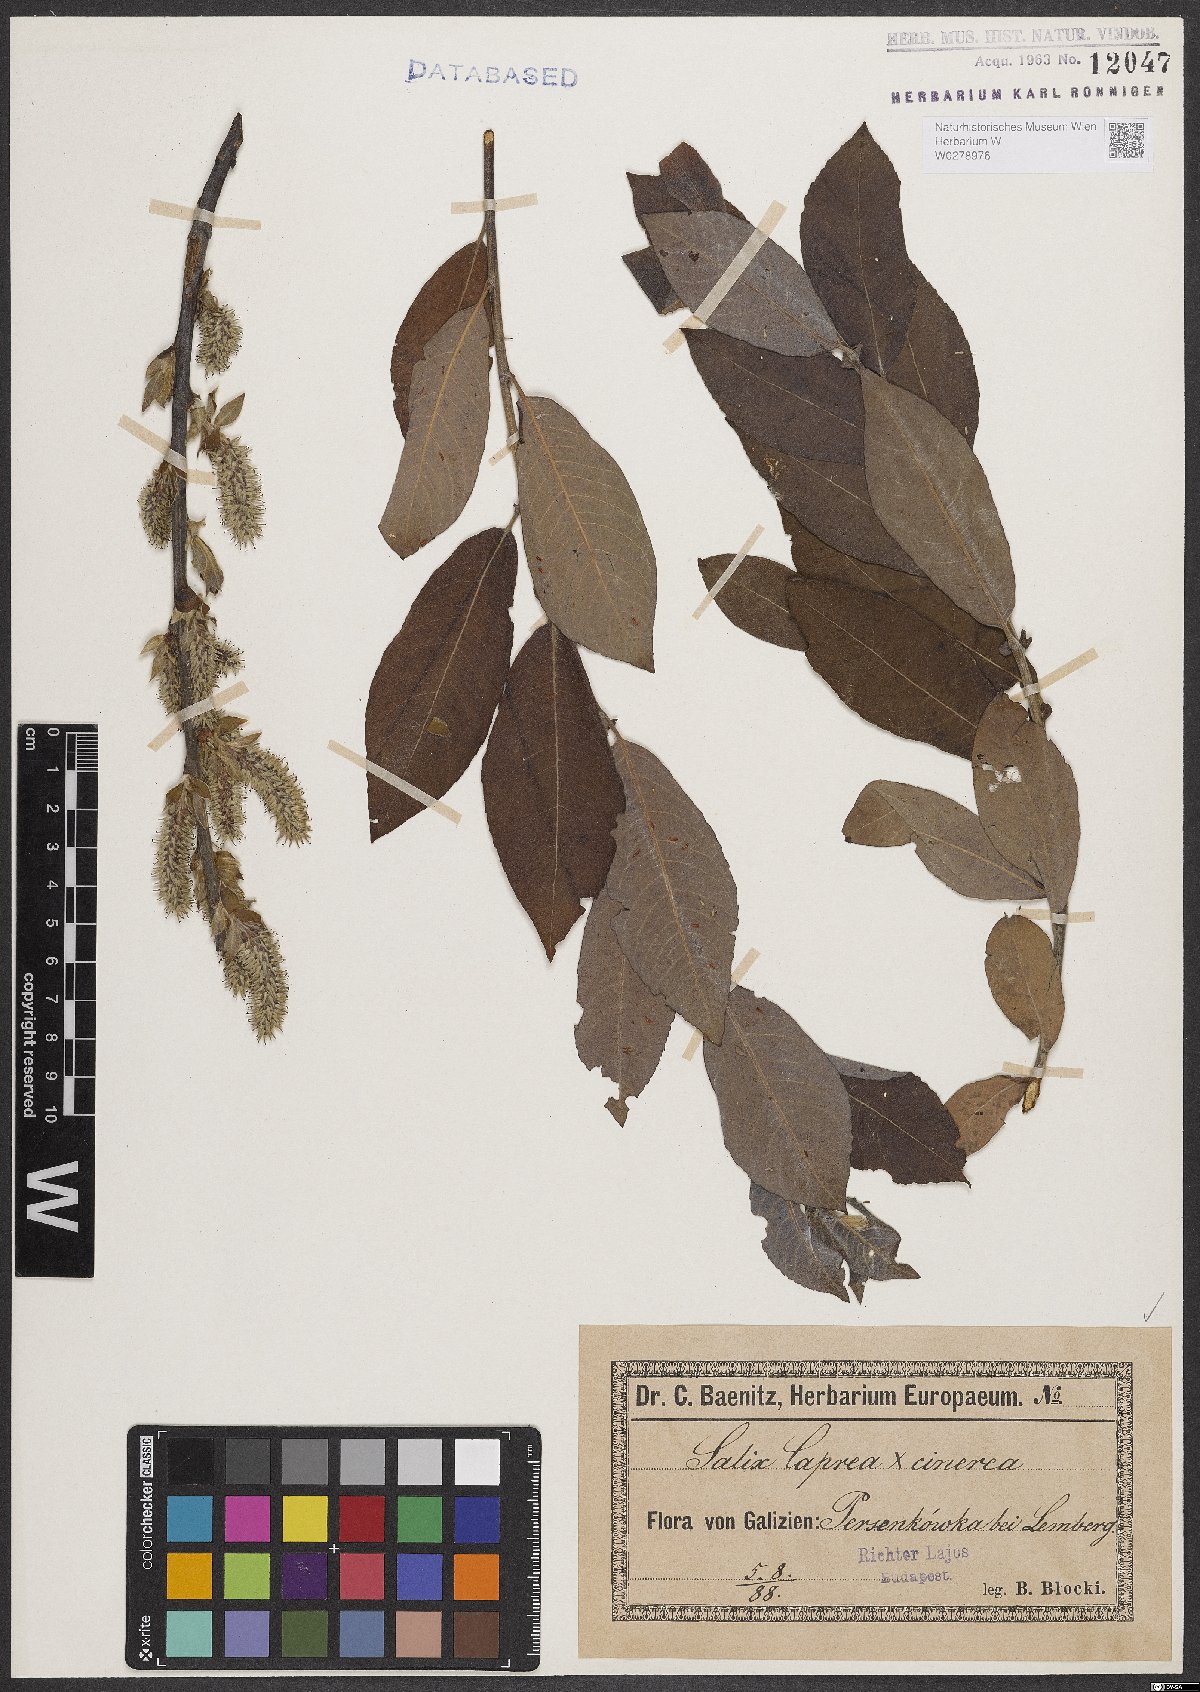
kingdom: Plantae
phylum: Tracheophyta
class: Magnoliopsida
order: Malpighiales
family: Salicaceae
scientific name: Salicaceae
